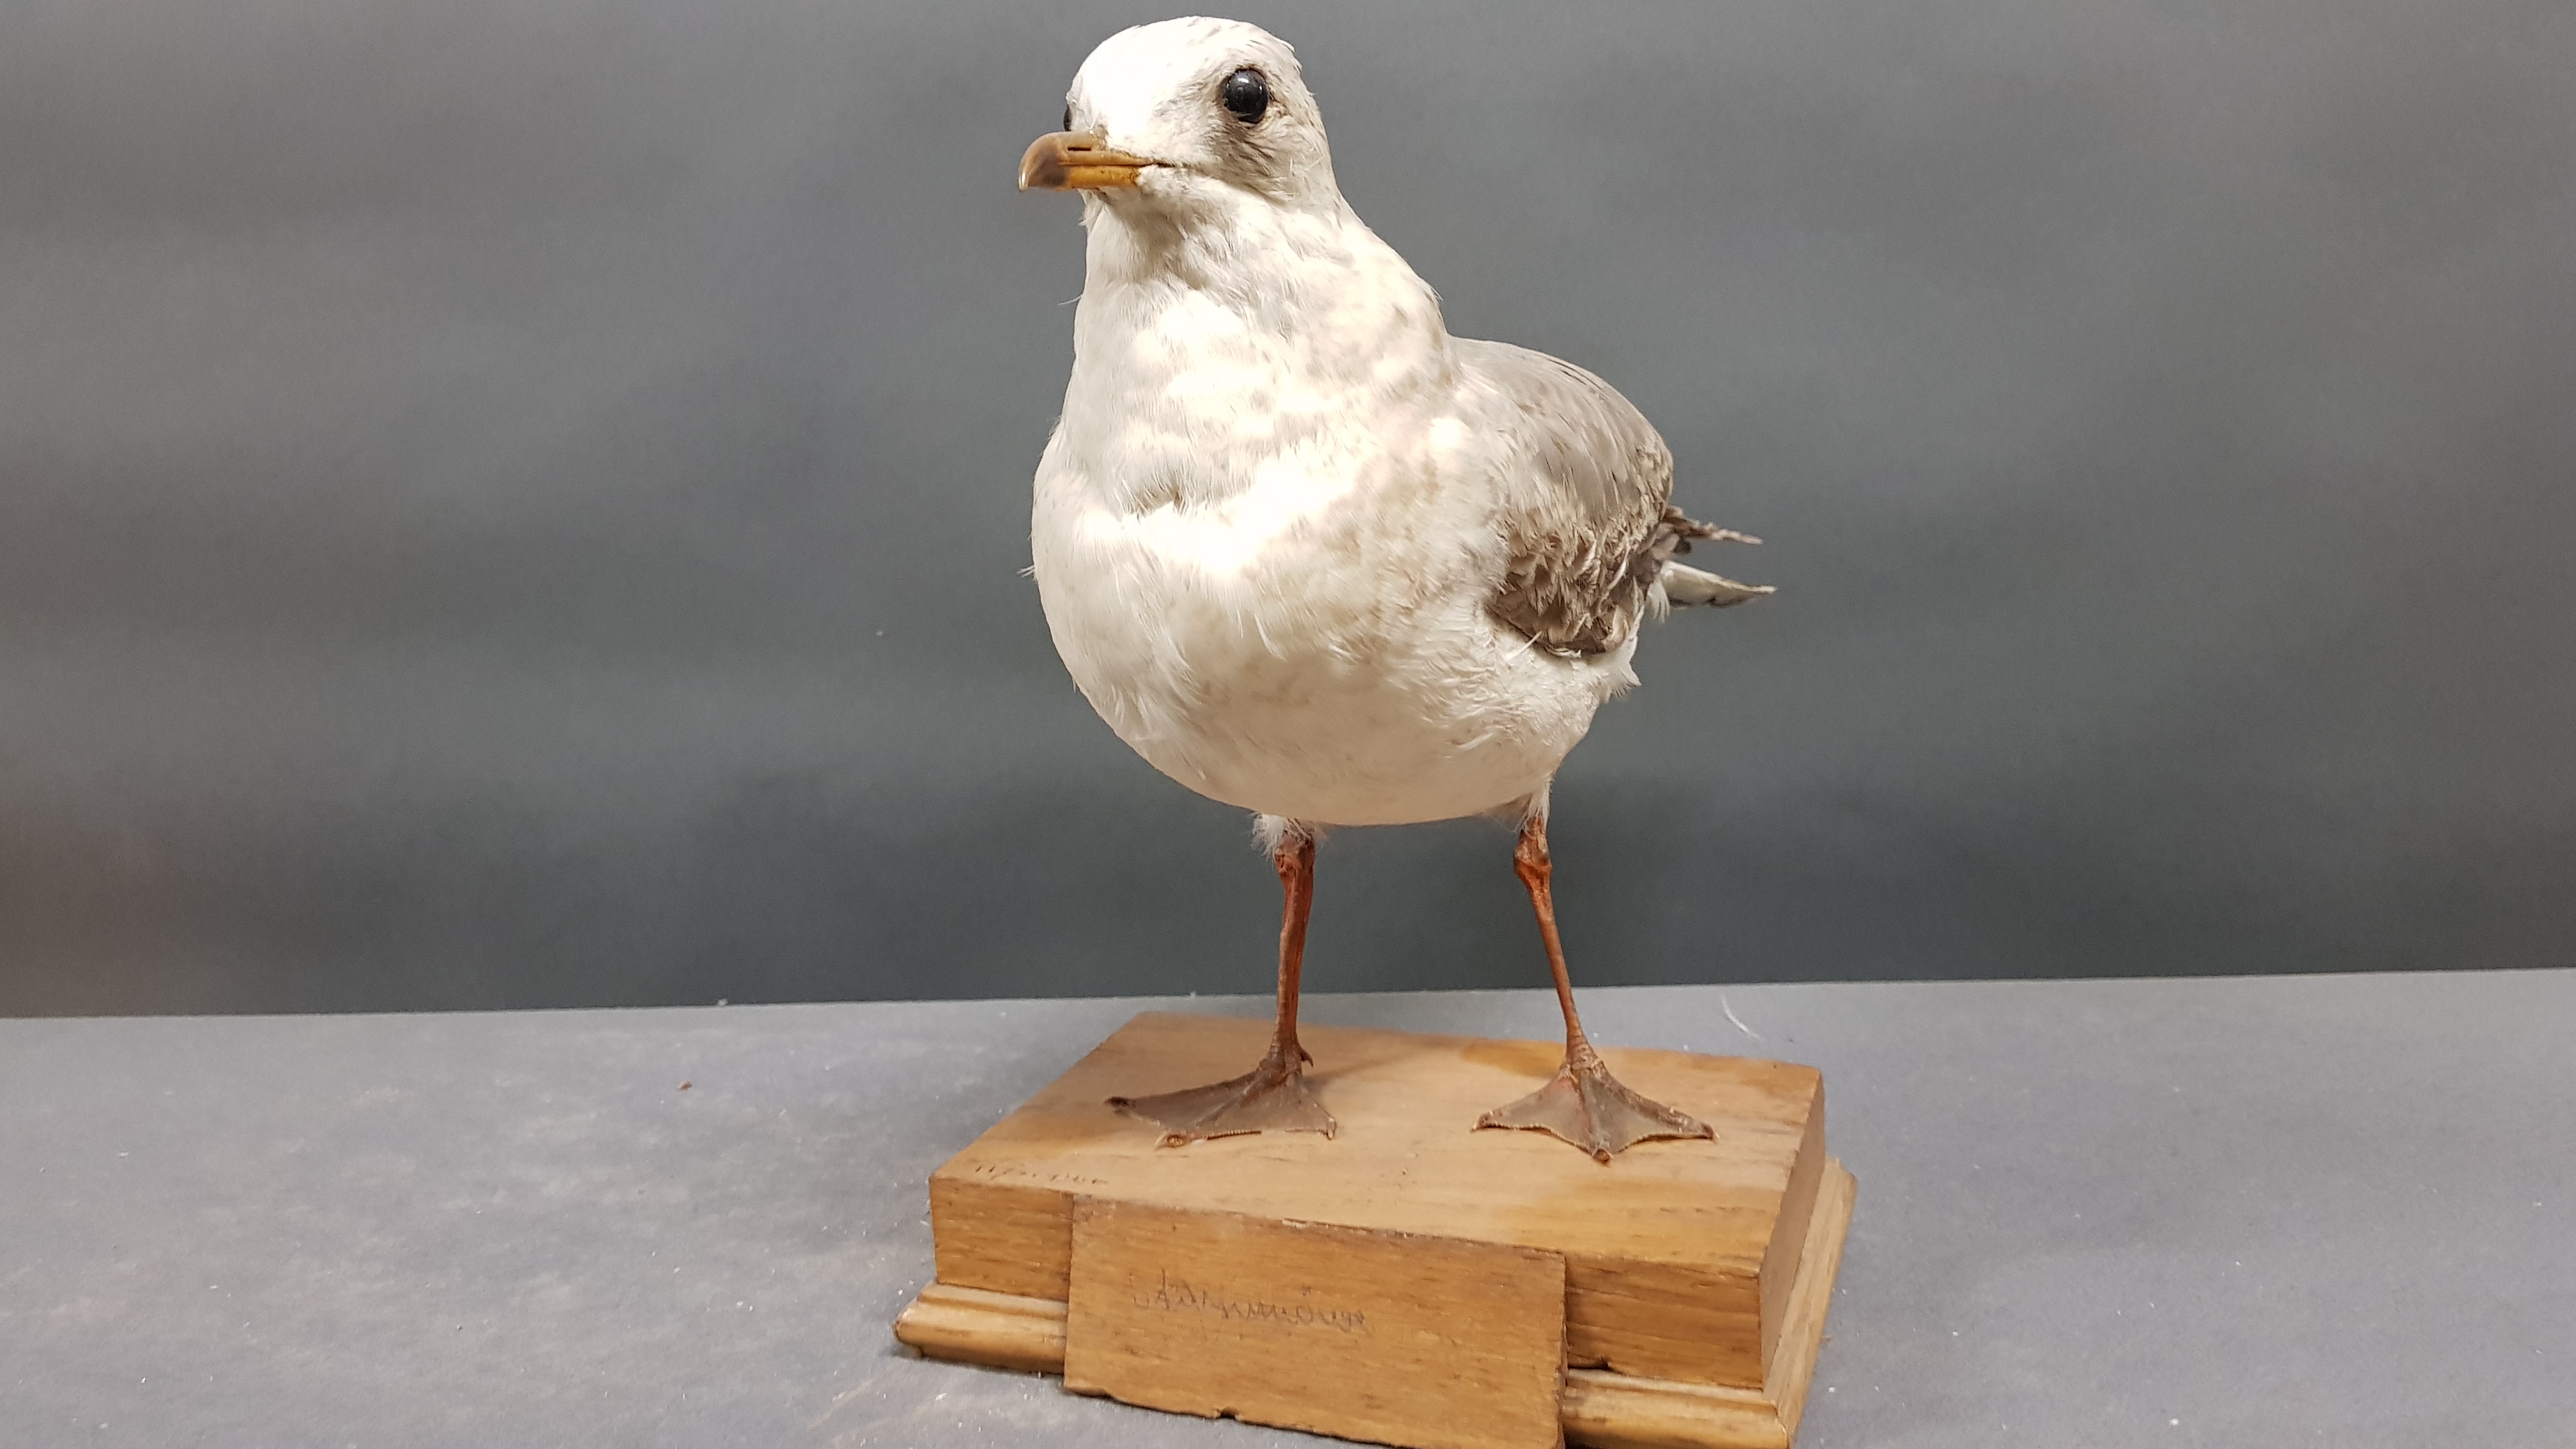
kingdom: Animalia
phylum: Chordata
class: Aves
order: Charadriiformes
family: Laridae
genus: Larus
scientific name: Larus canus
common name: Mew gull
